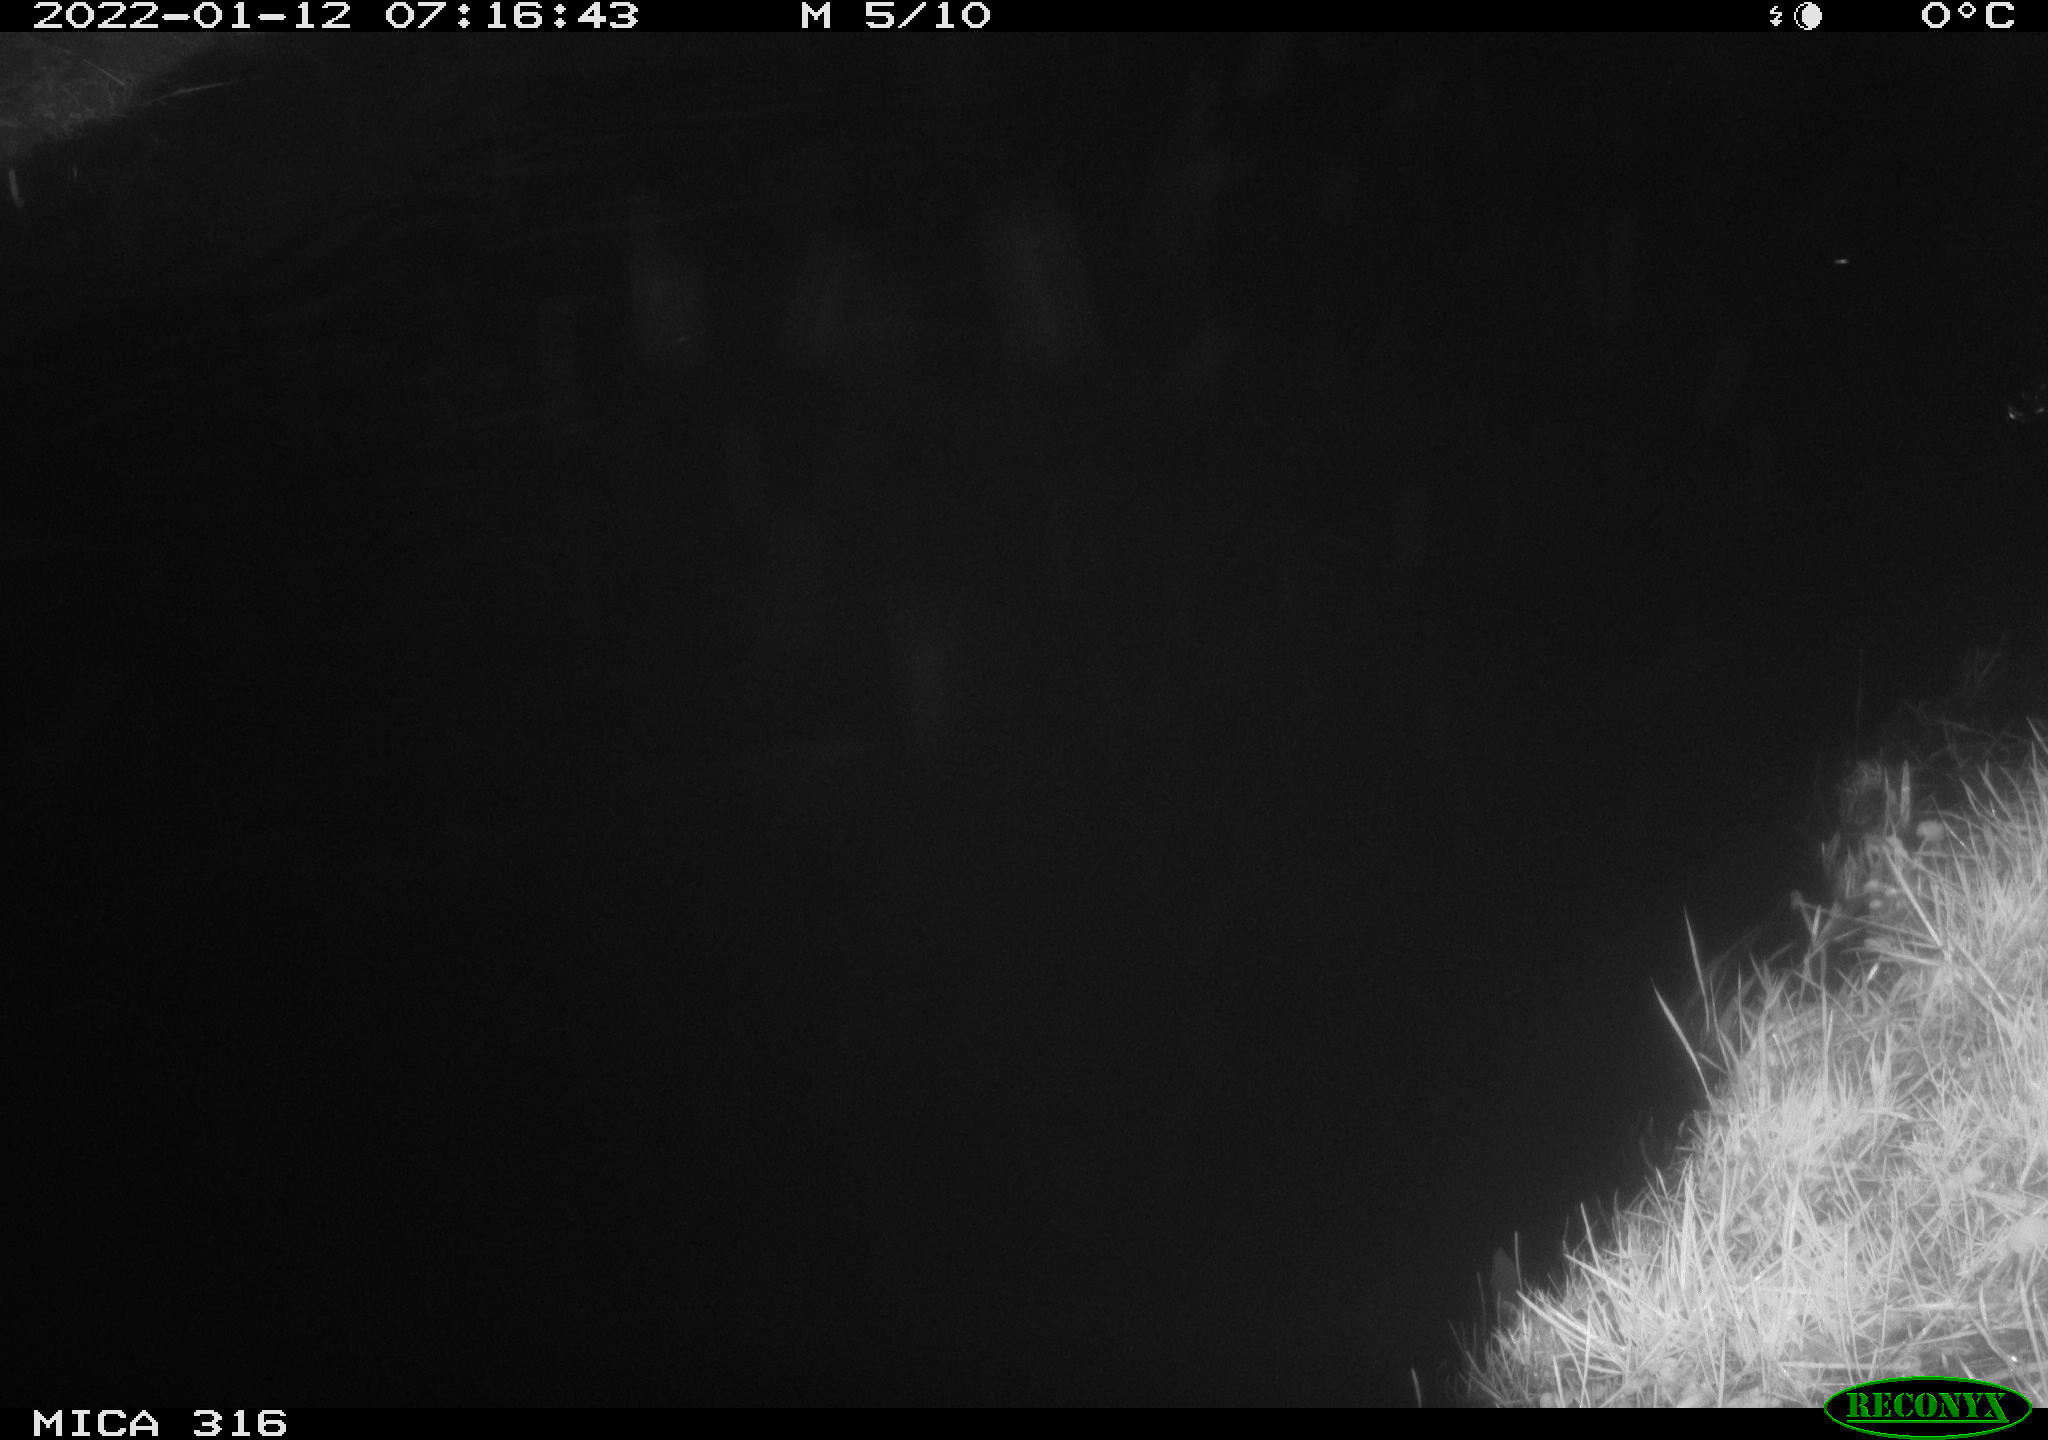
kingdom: Animalia
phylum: Chordata
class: Aves
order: Anseriformes
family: Anatidae
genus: Anas
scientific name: Anas
